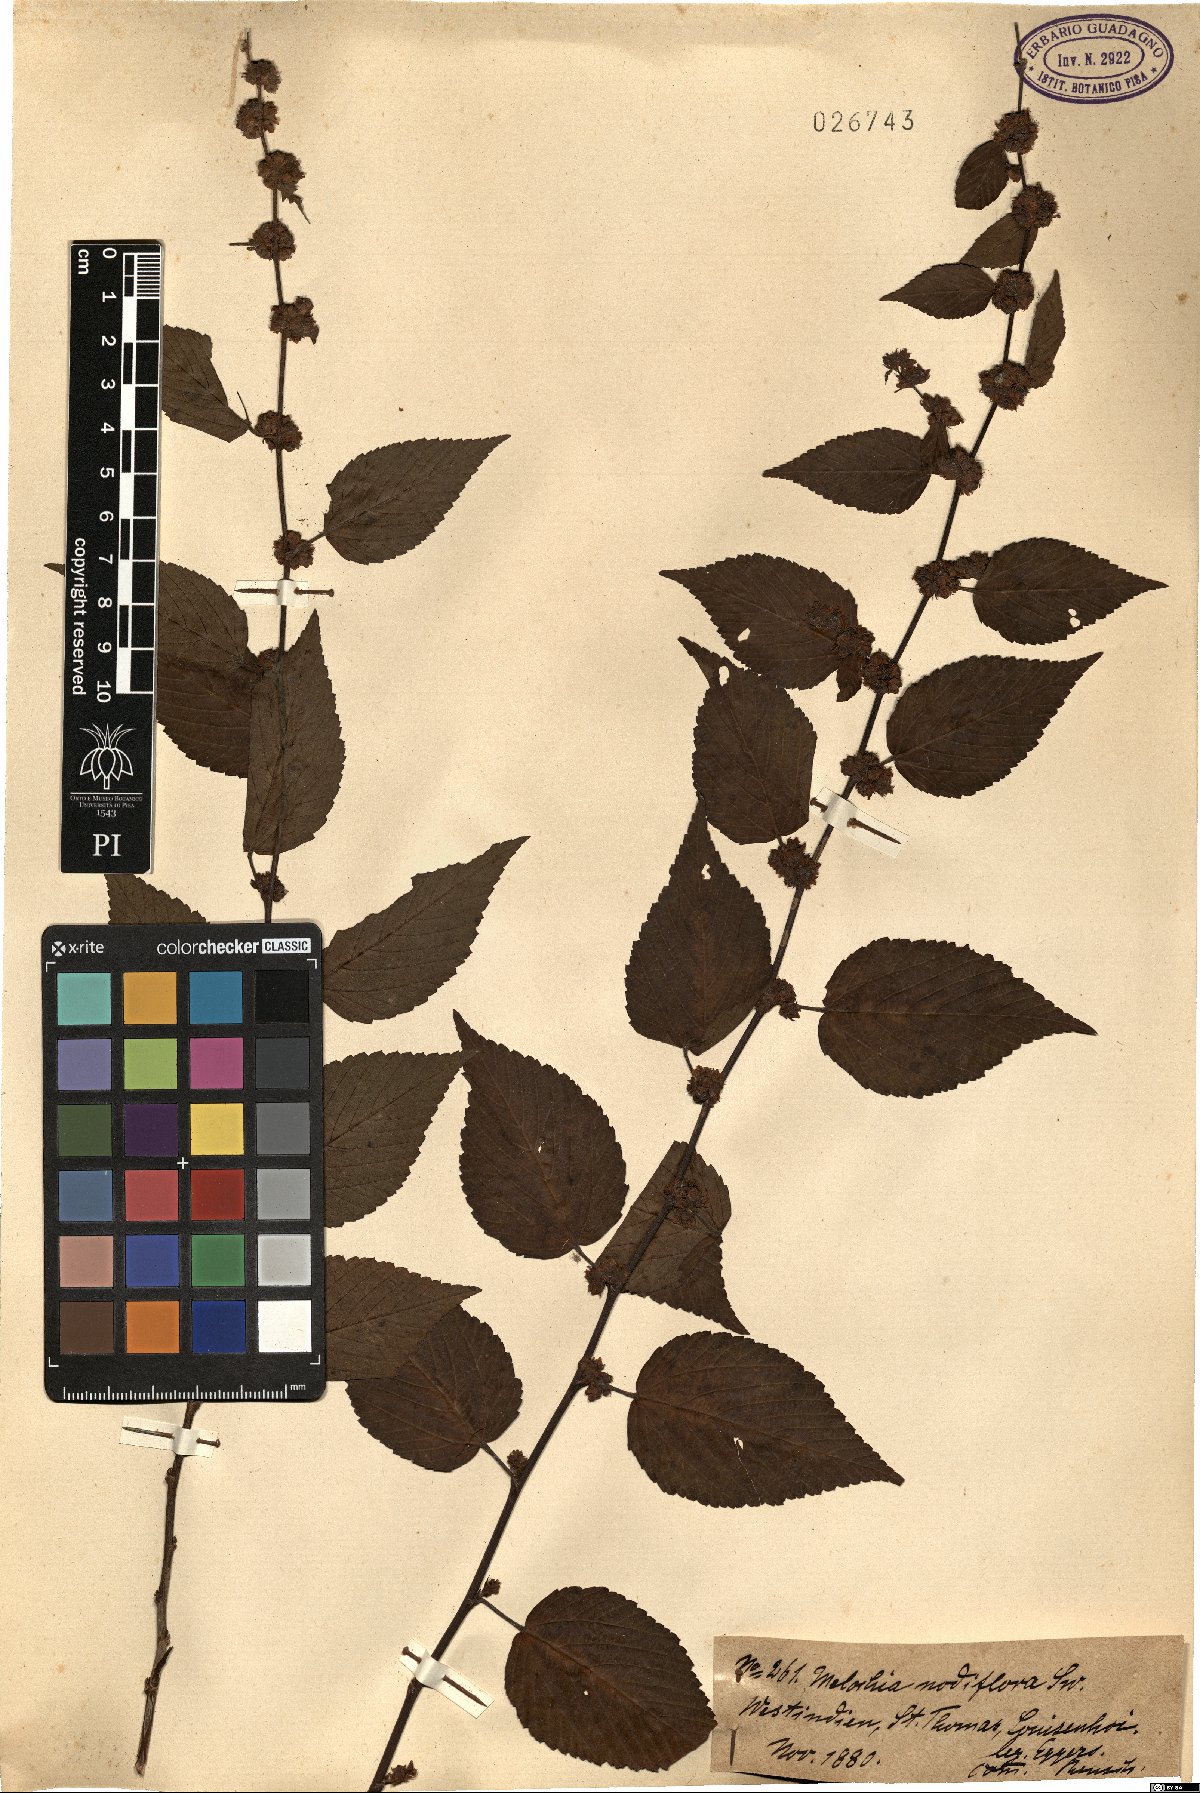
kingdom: Plantae
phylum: Tracheophyta
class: Magnoliopsida
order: Malvales
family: Malvaceae
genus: Melochia
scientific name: Melochia nodiflora
